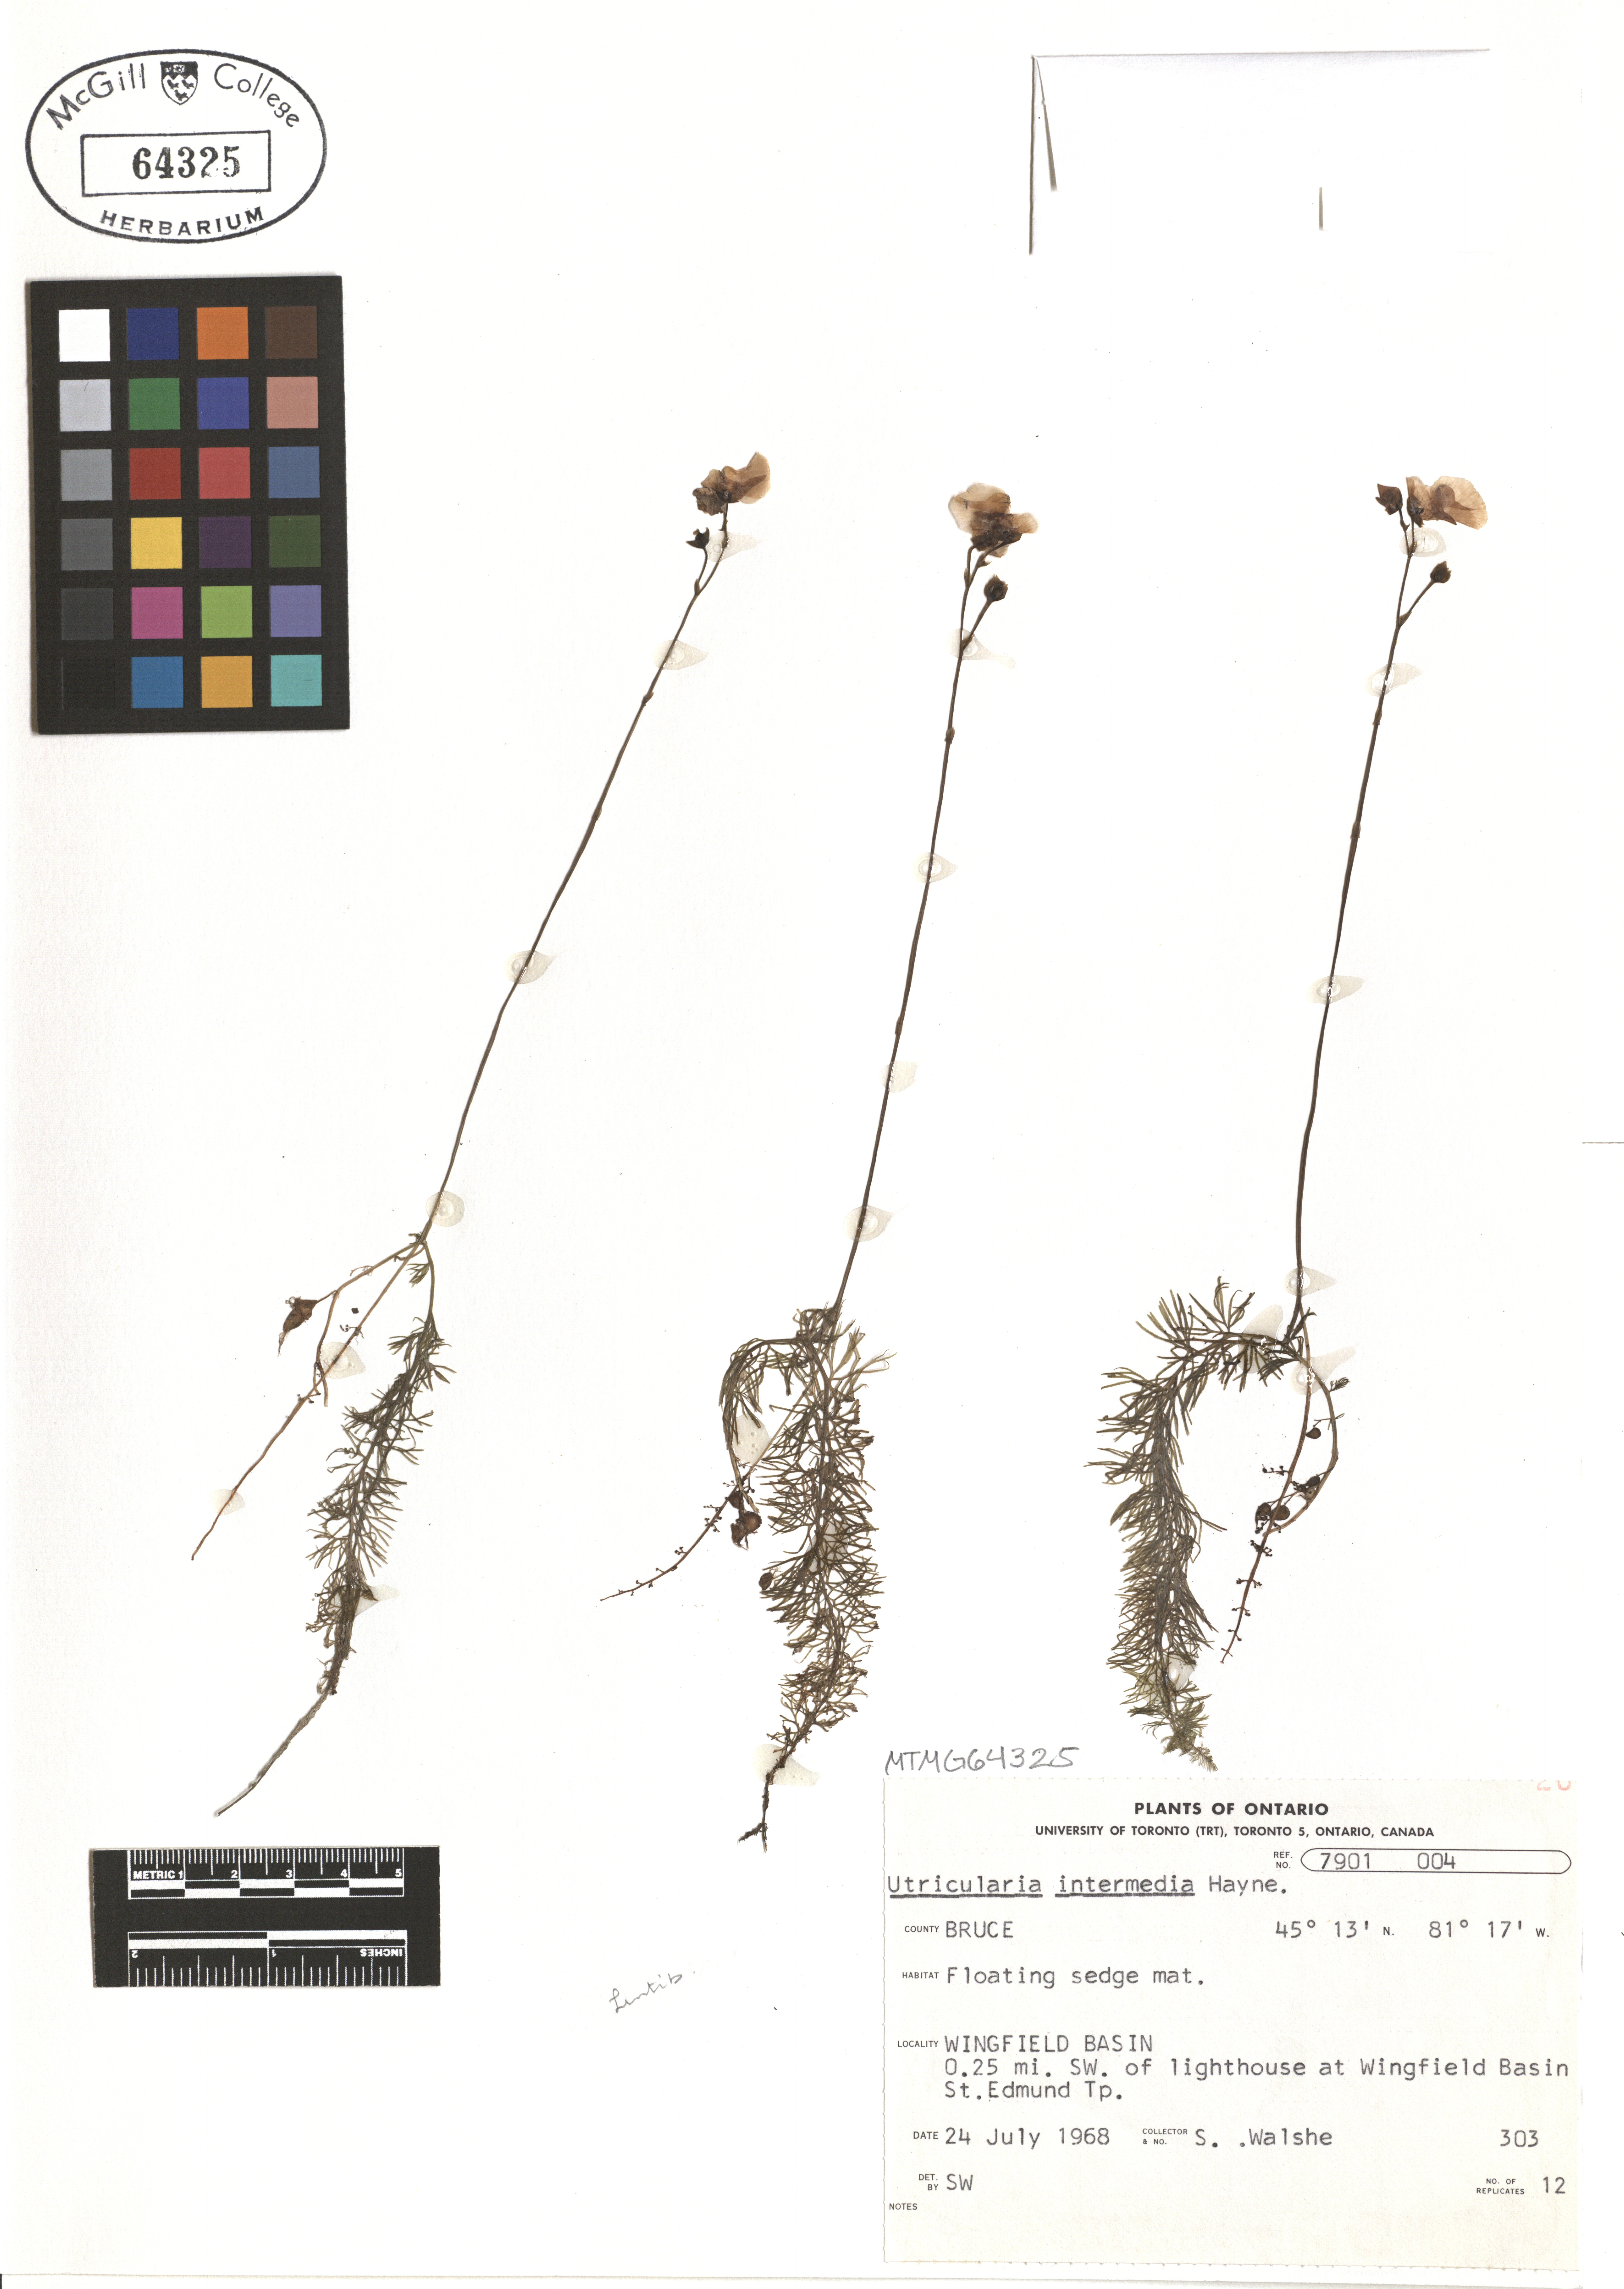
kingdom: Plantae
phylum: Tracheophyta
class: Magnoliopsida
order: Lamiales
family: Lentibulariaceae
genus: Utricularia
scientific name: Utricularia intermedia
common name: Intermediate bladderwort
